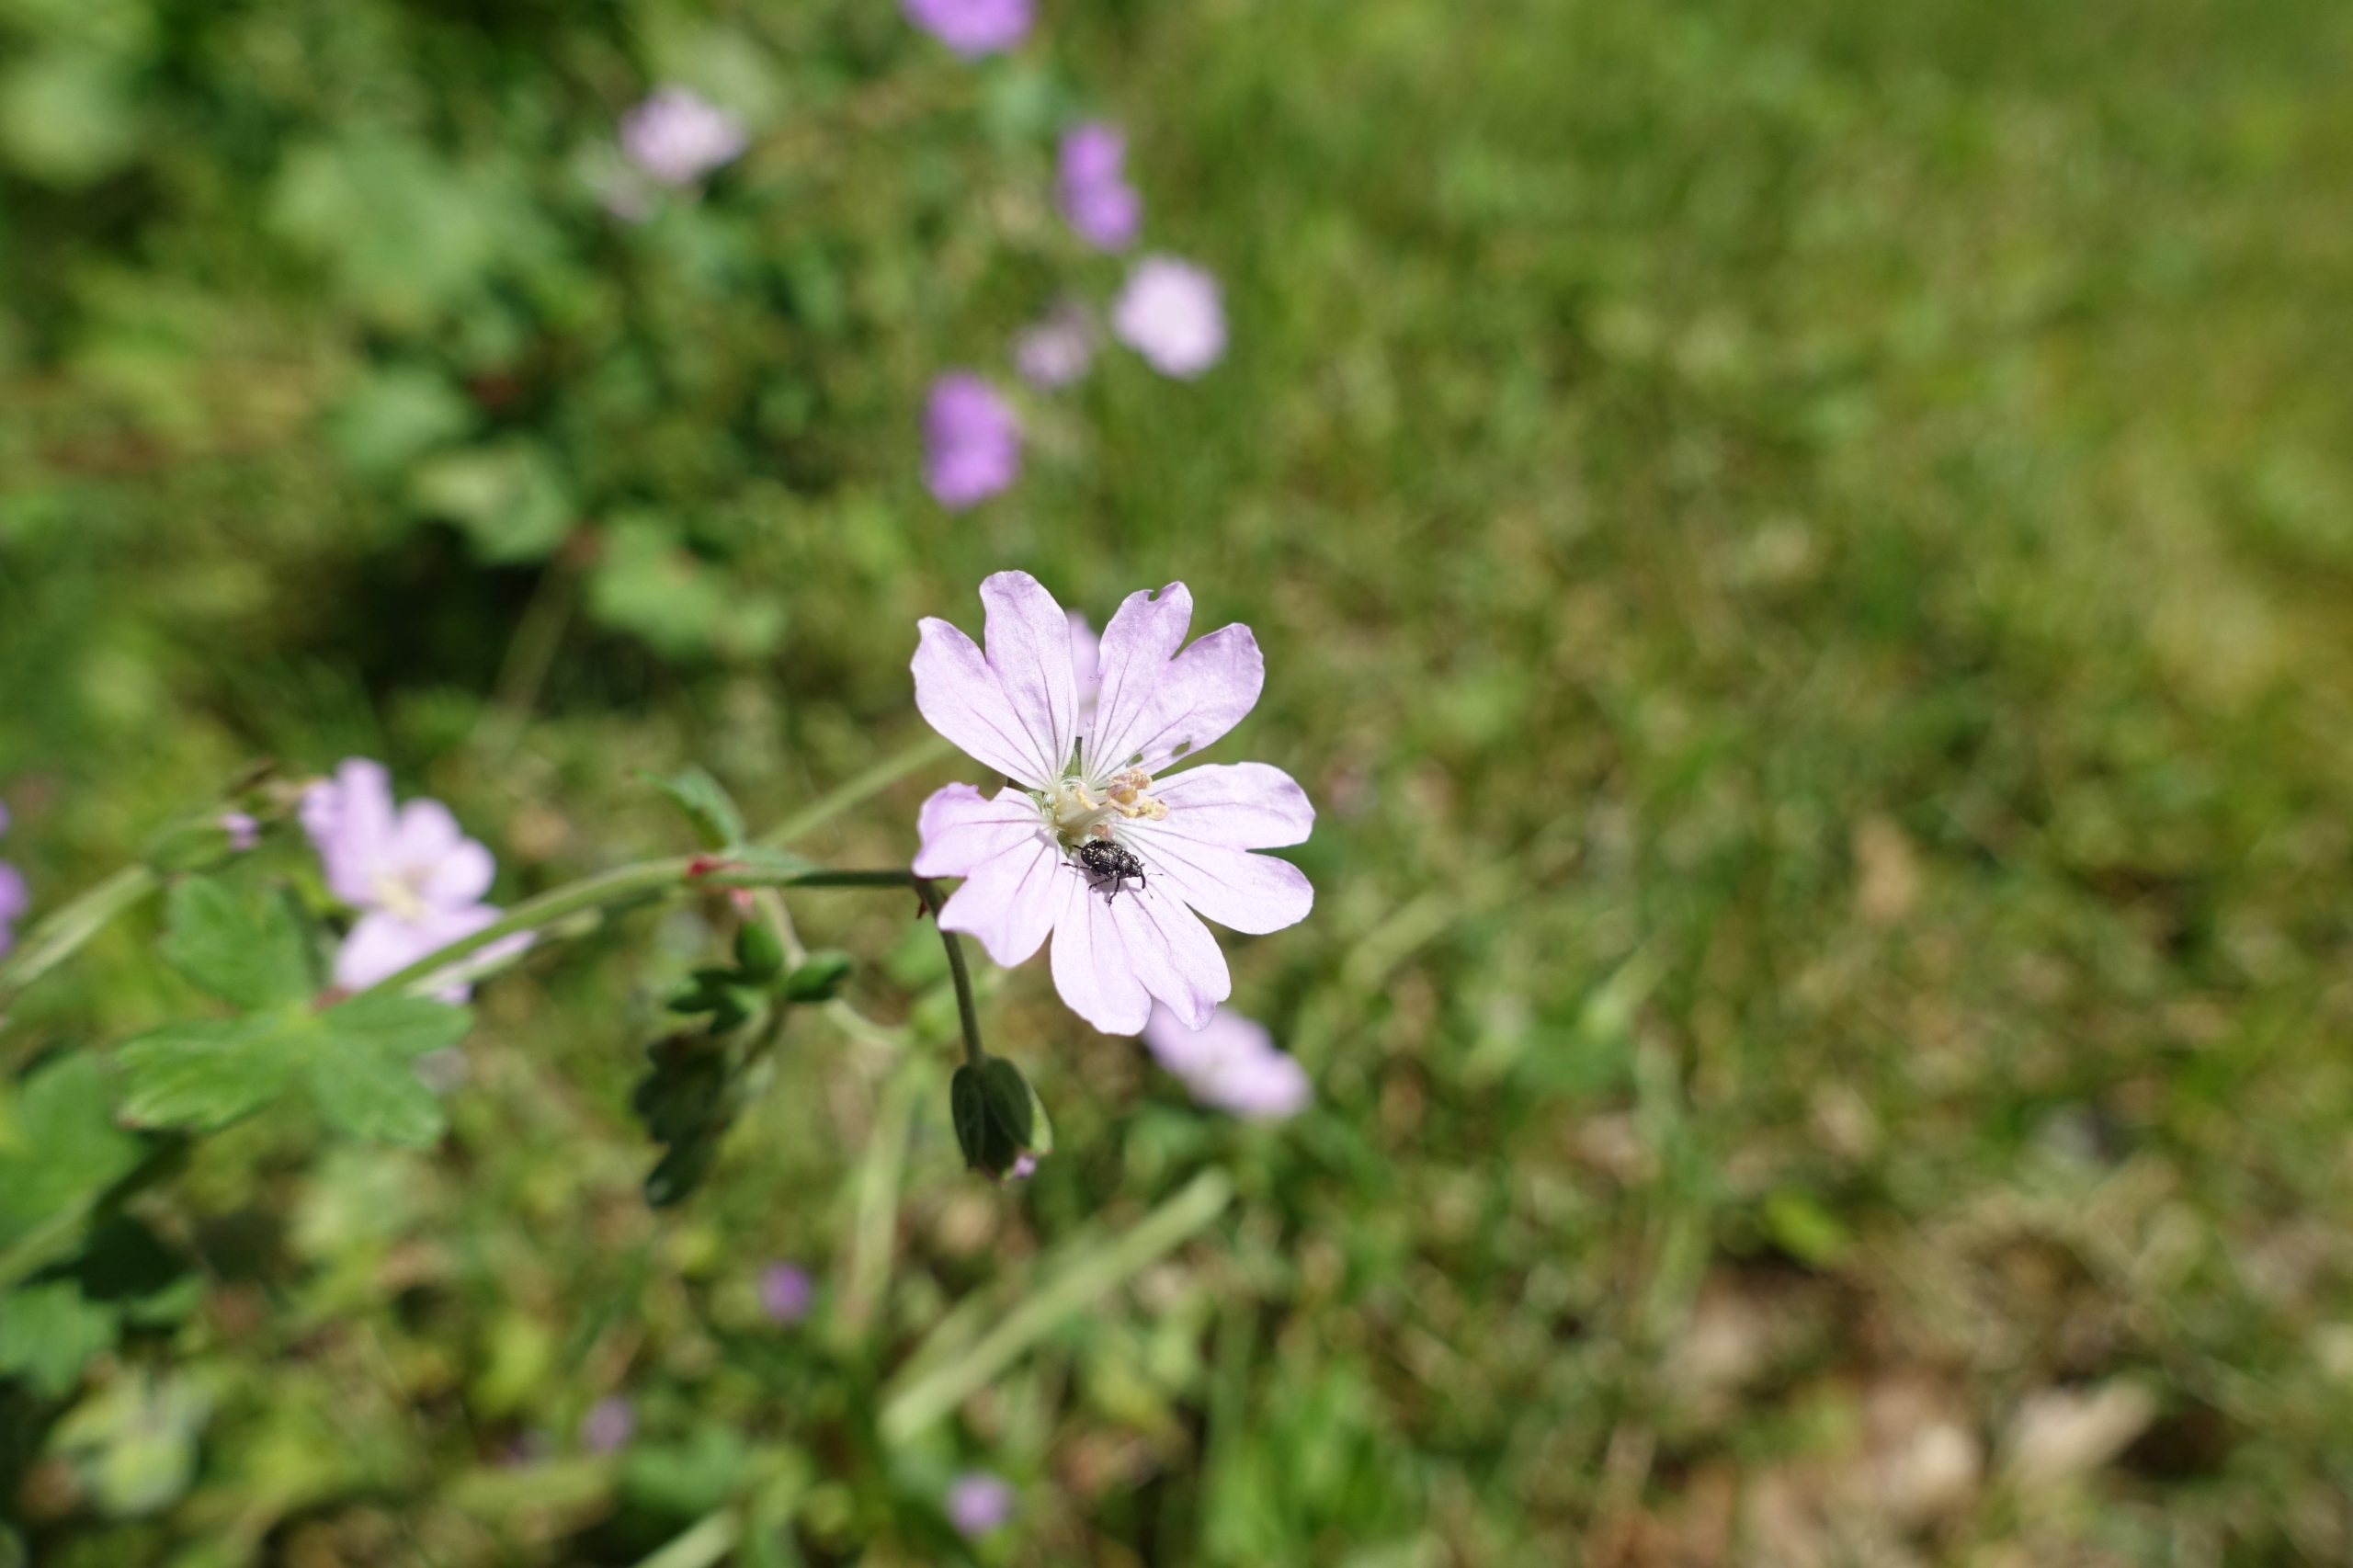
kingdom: Animalia
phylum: Arthropoda
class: Insecta
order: Coleoptera
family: Curculionidae
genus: Zacladus
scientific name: Zacladus geranii
